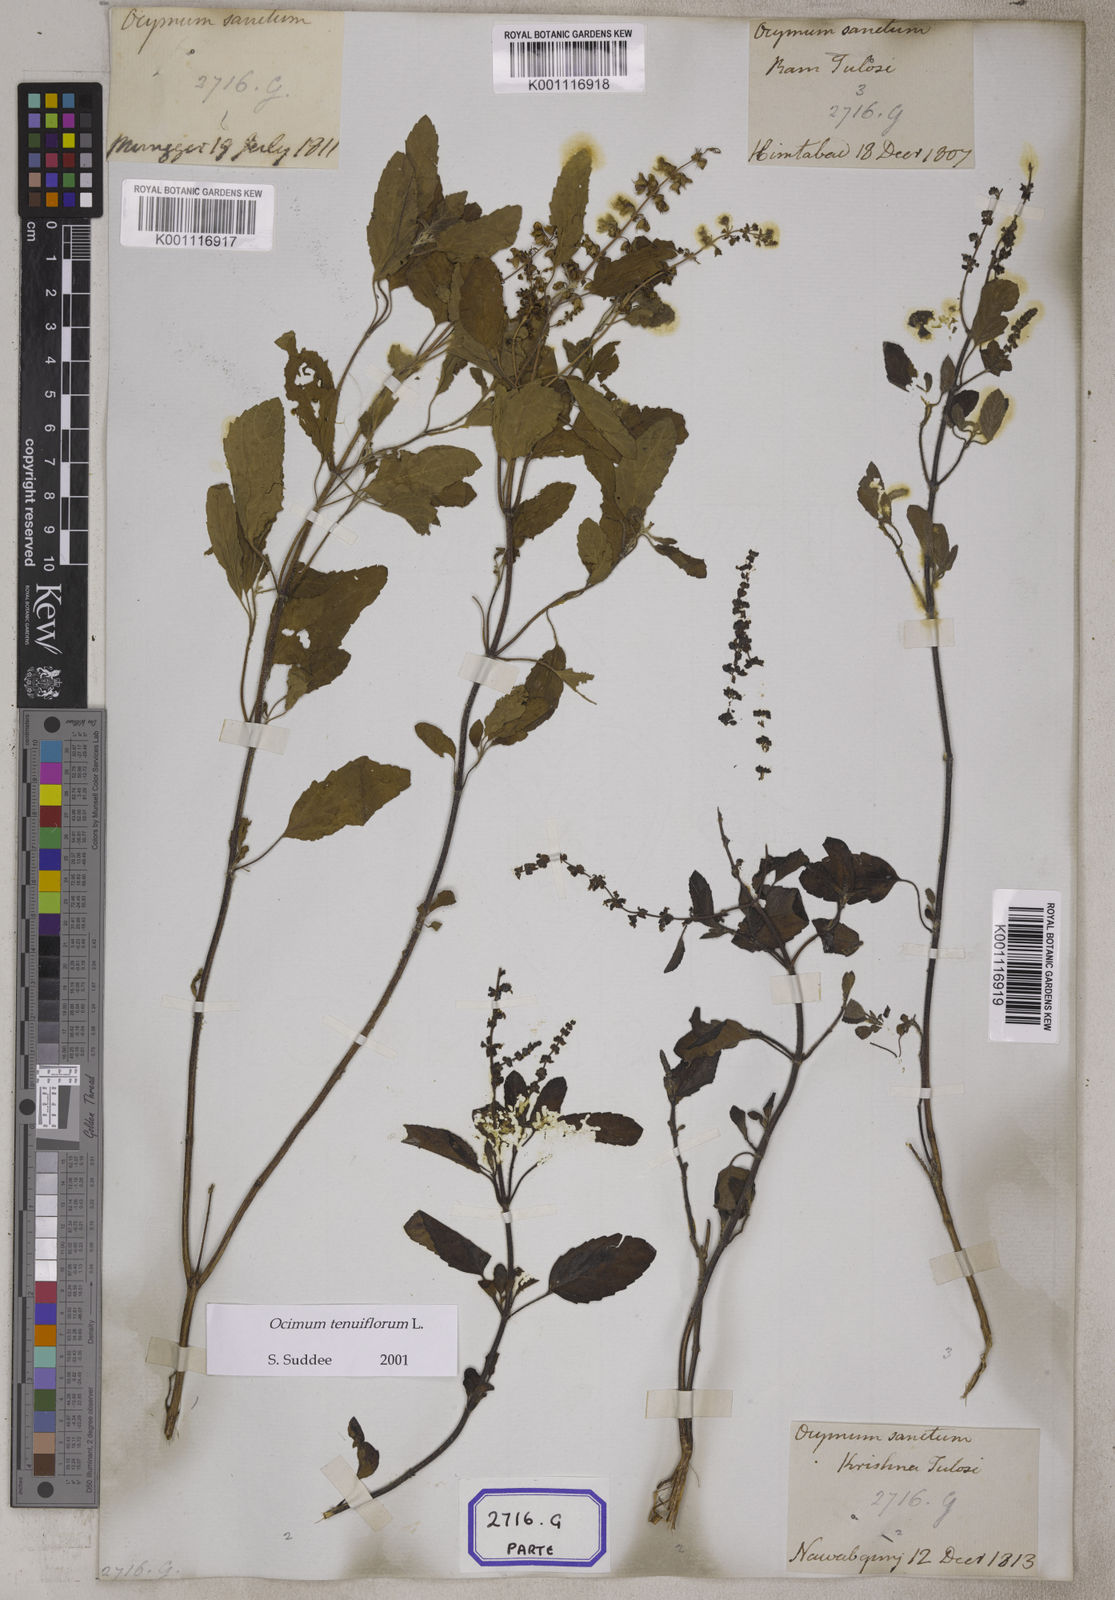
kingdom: Plantae
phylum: Tracheophyta
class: Magnoliopsida
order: Lamiales
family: Lamiaceae
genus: Ocimum
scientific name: Ocimum tenuiflorum
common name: Sacred basil
